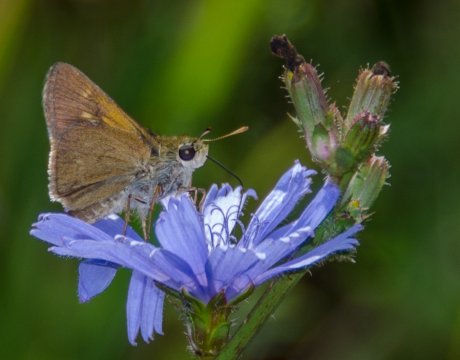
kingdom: Animalia
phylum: Arthropoda
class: Insecta
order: Lepidoptera
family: Hesperiidae
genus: Polites
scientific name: Polites themistocles
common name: Tawny-edged Skipper
